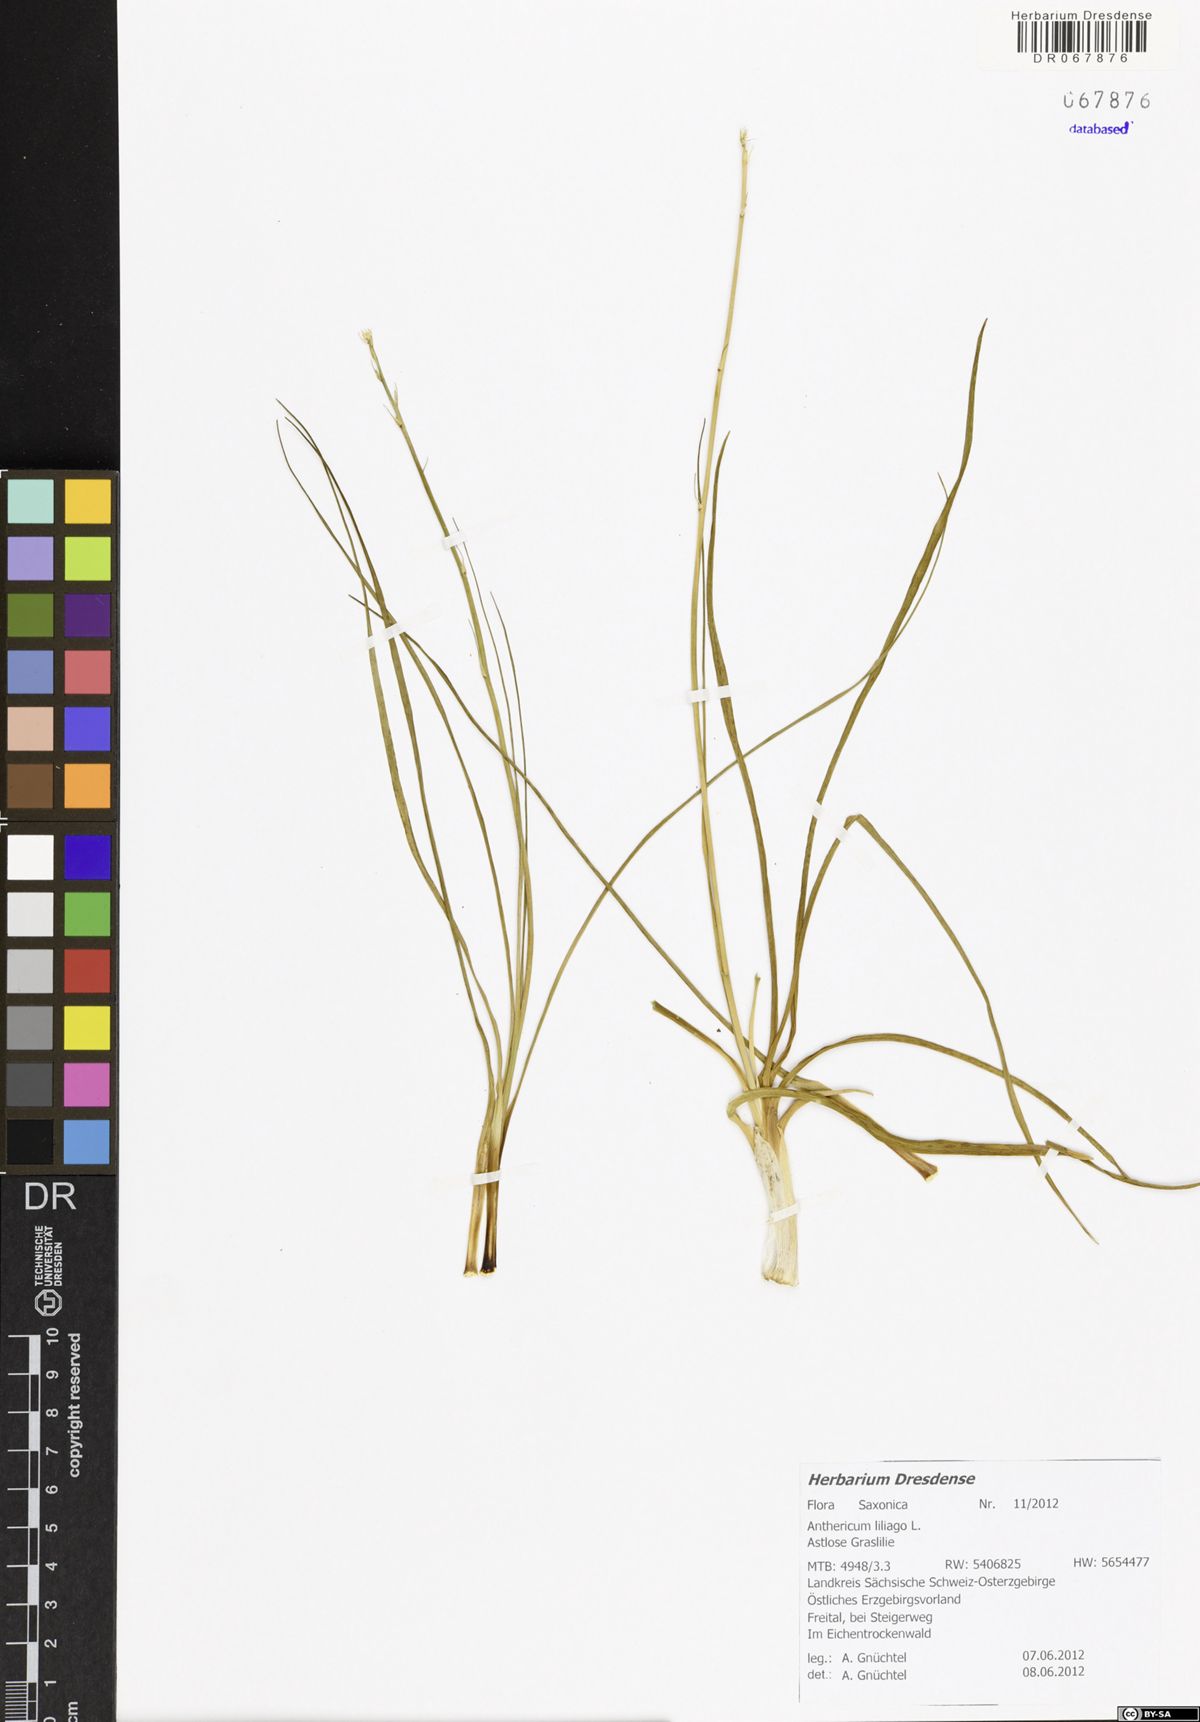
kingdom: Plantae
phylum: Tracheophyta
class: Liliopsida
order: Asparagales
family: Asparagaceae
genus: Anthericum
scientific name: Anthericum liliago
